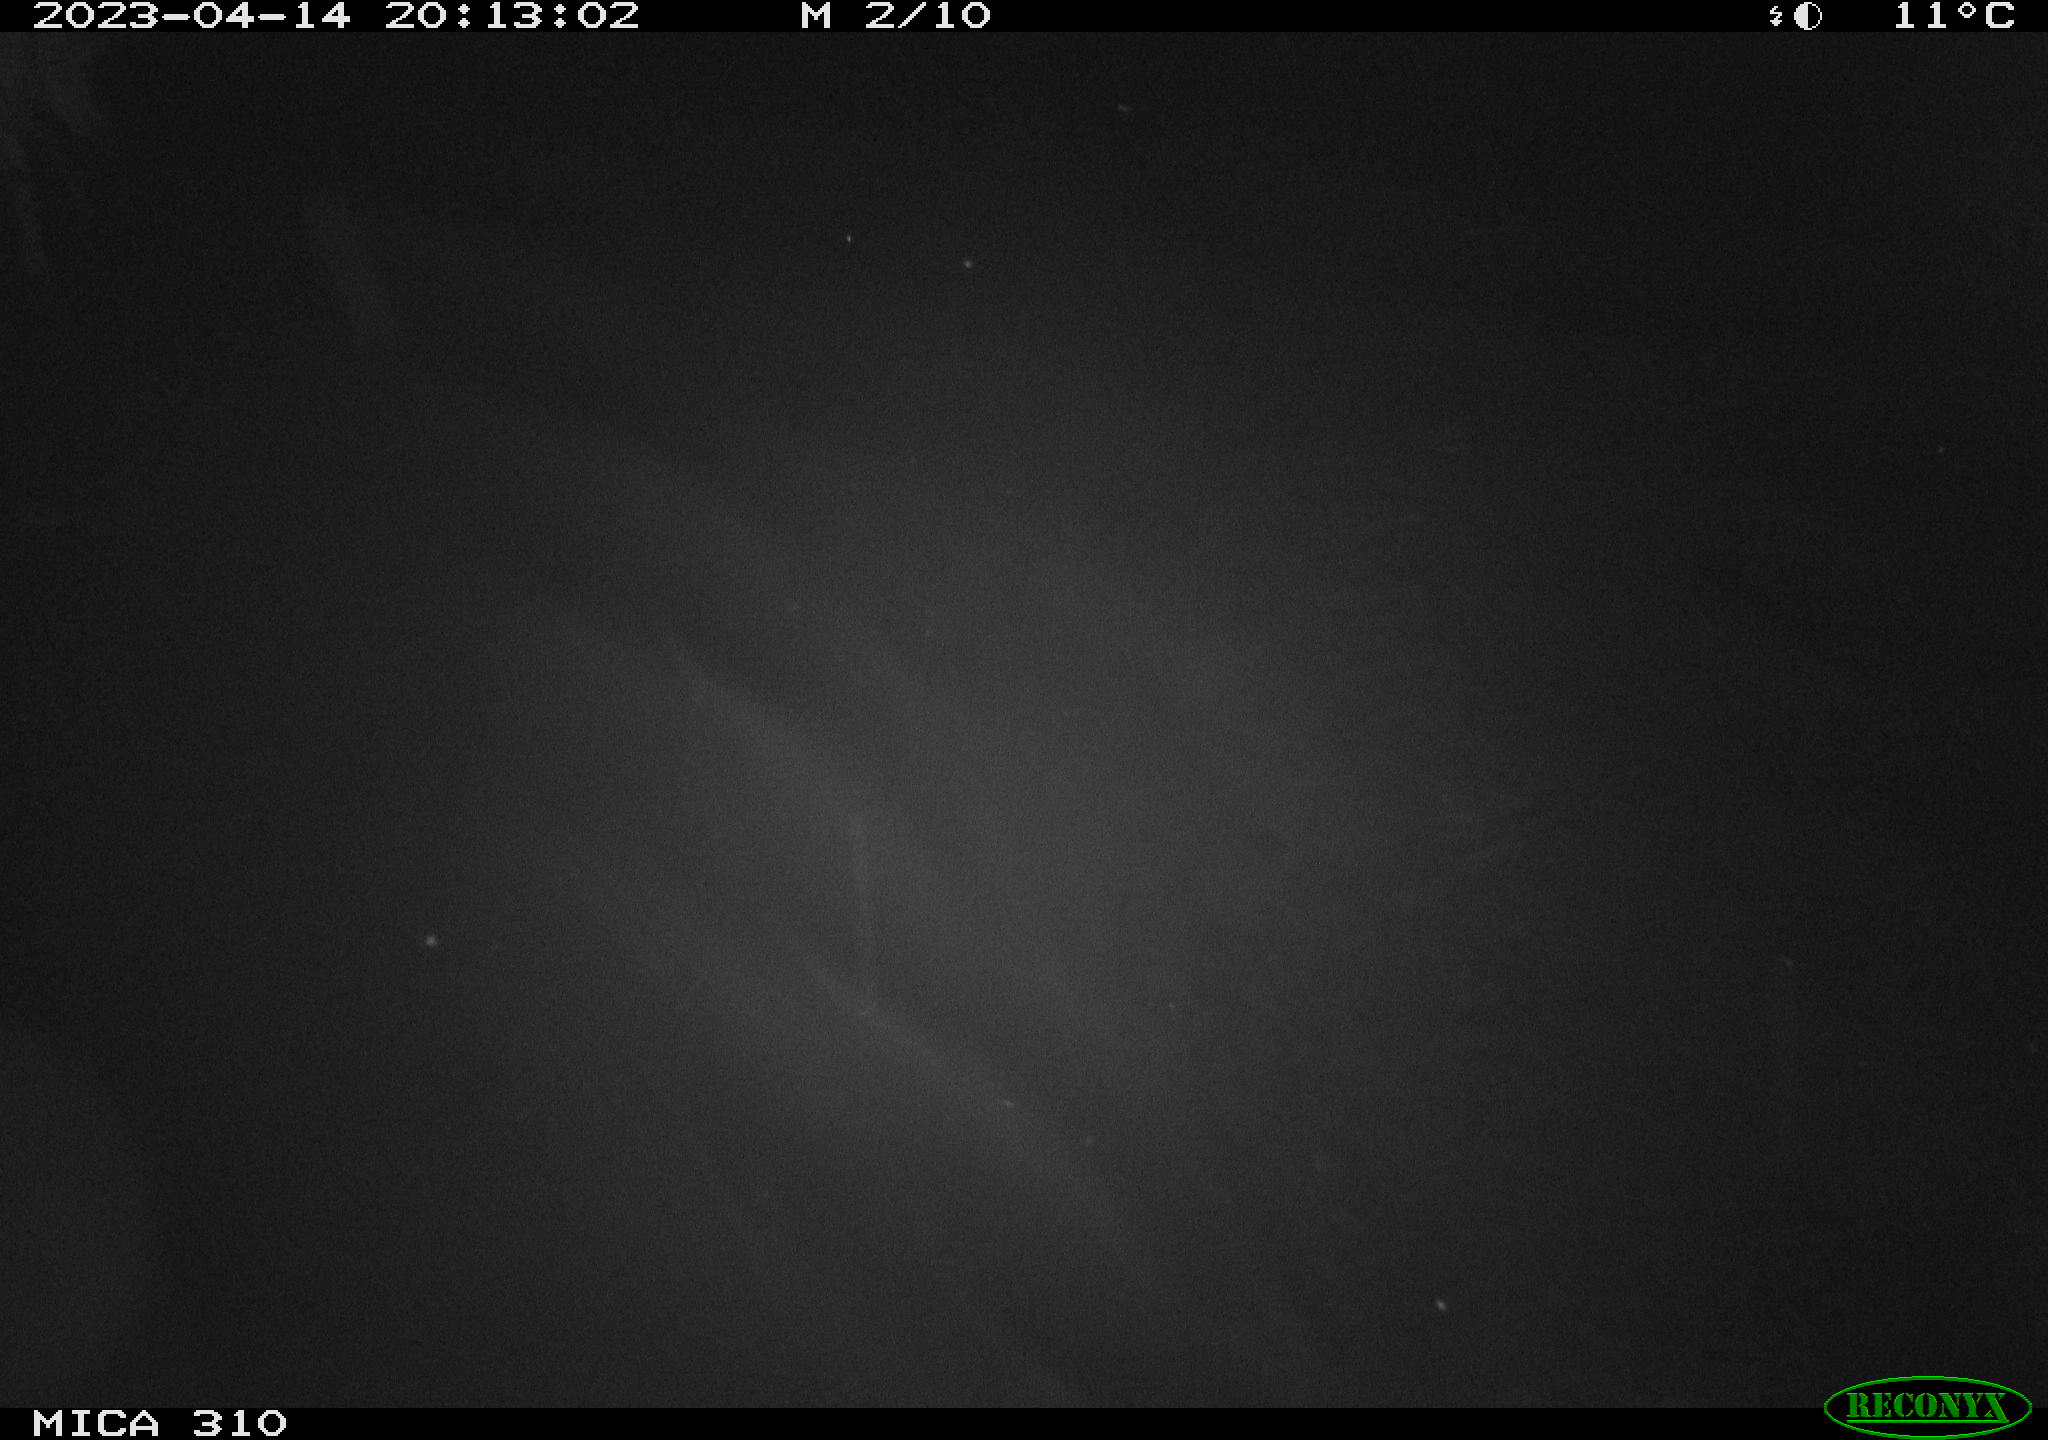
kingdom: Animalia
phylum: Chordata
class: Aves
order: Anseriformes
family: Anatidae
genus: Anas
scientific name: Anas
